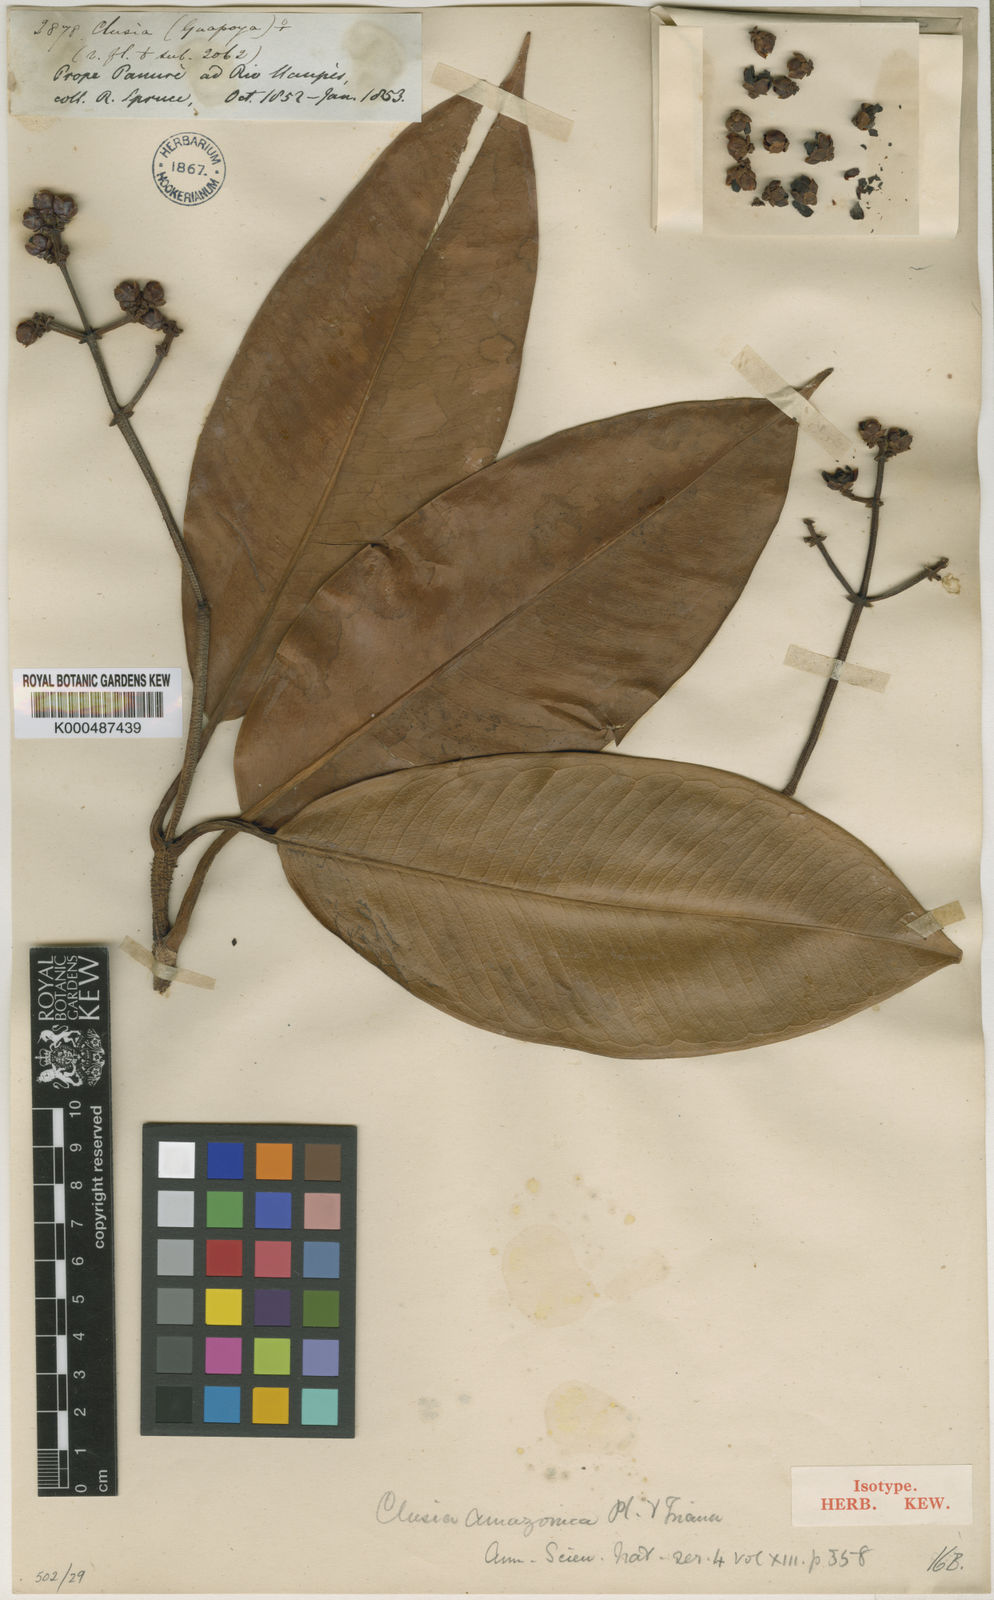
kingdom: Plantae
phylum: Tracheophyta
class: Magnoliopsida
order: Malpighiales
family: Clusiaceae
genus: Clusia
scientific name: Clusia amazonica
